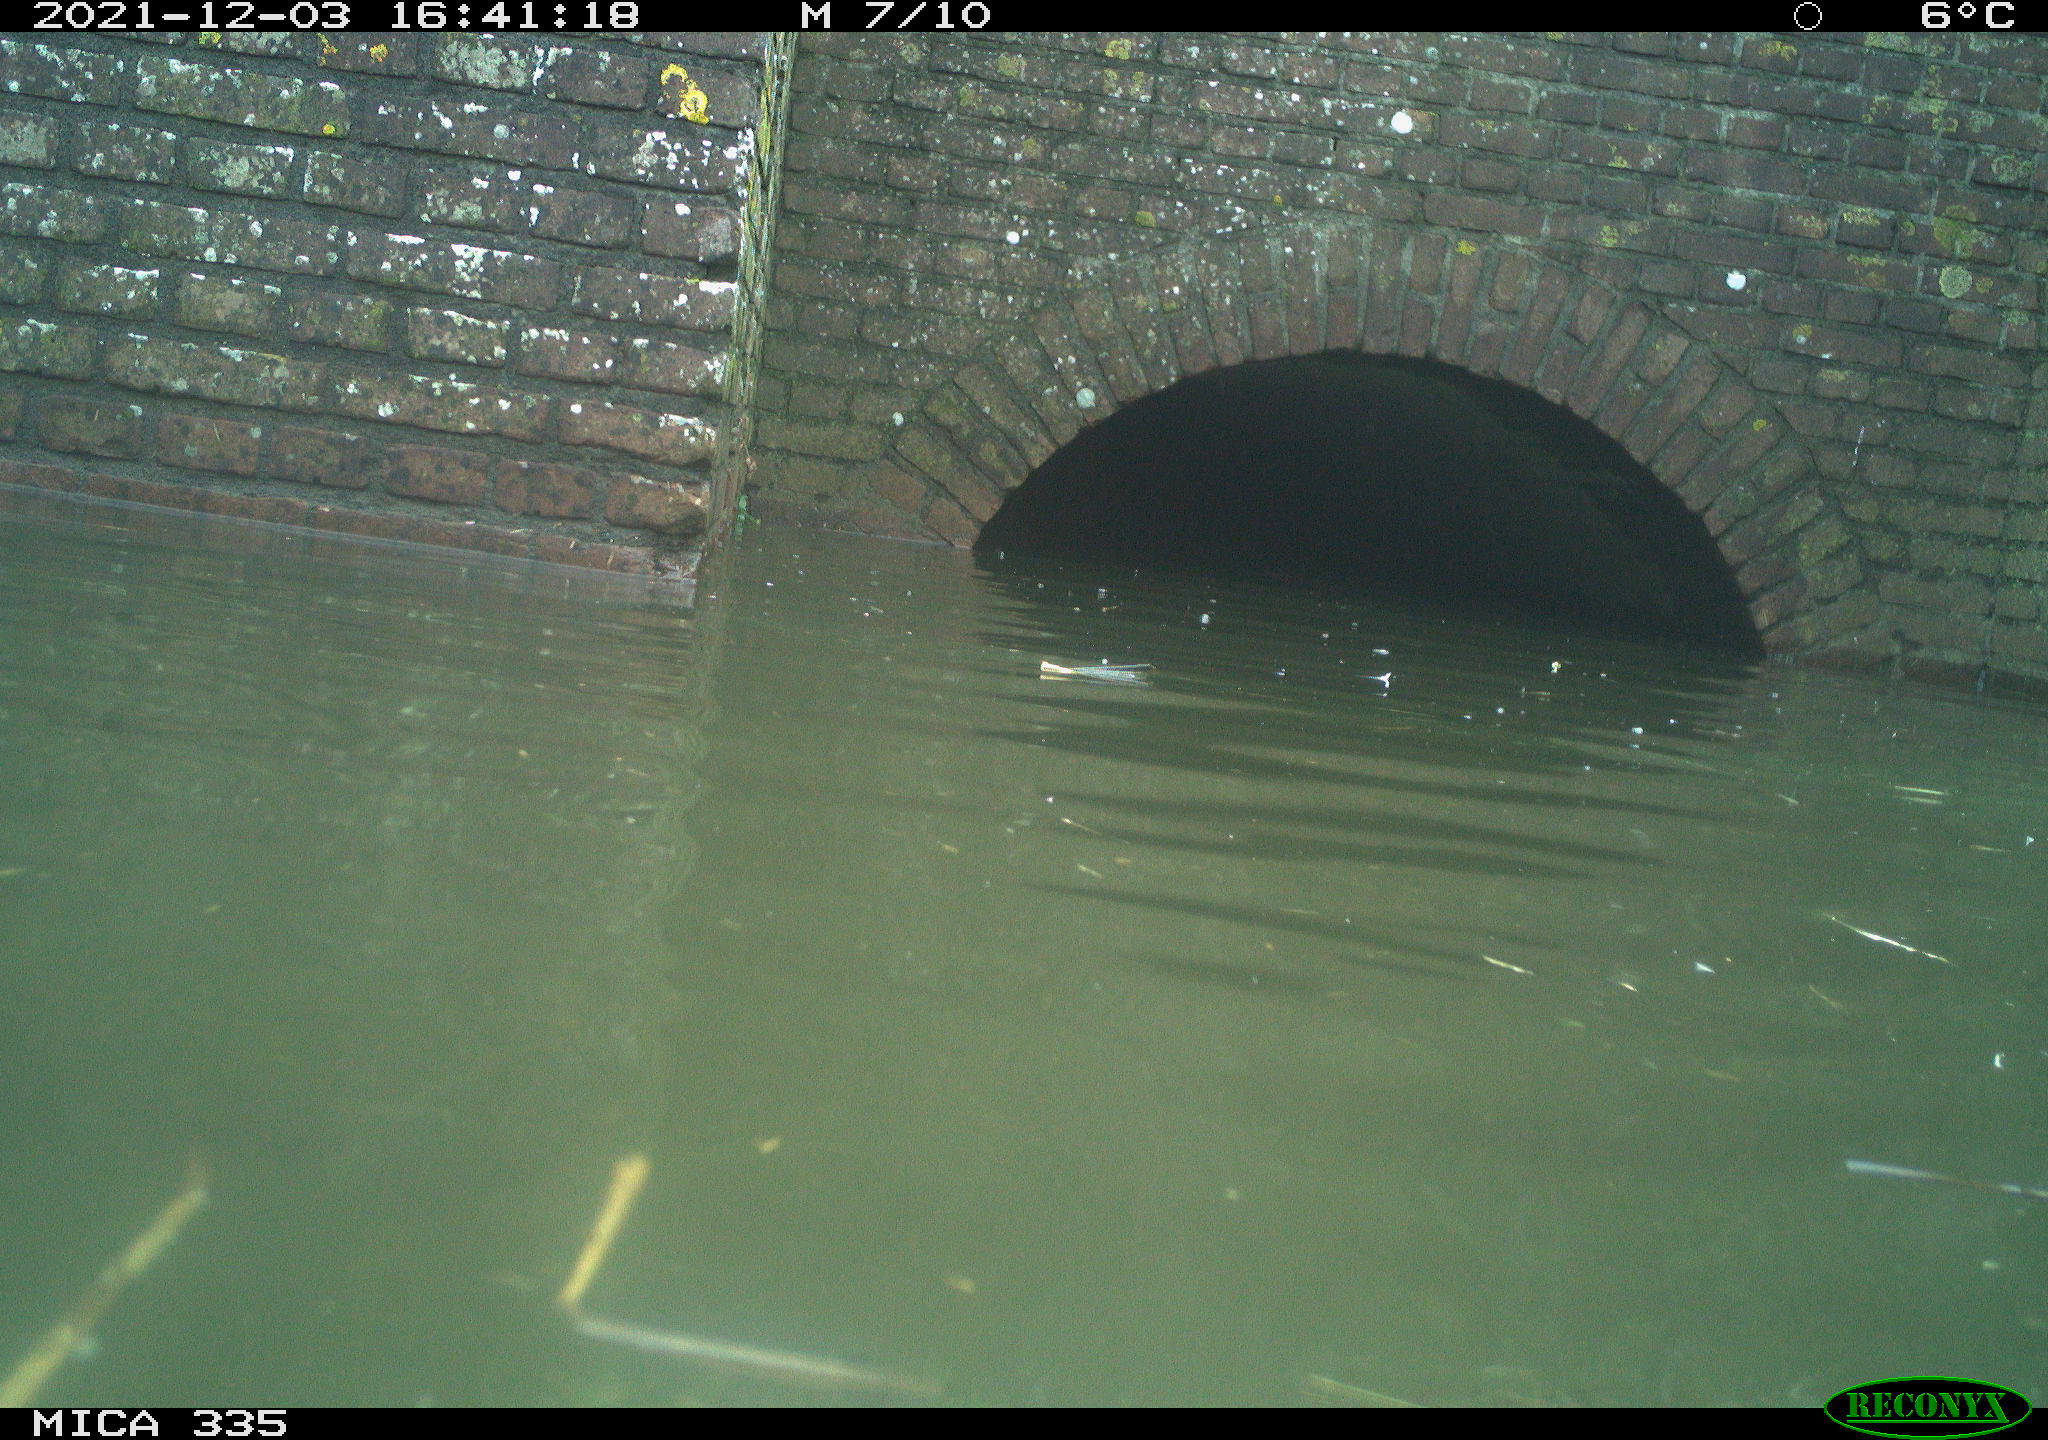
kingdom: Animalia
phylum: Chordata
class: Aves
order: Gruiformes
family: Rallidae
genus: Gallinula
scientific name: Gallinula chloropus
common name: Common moorhen
